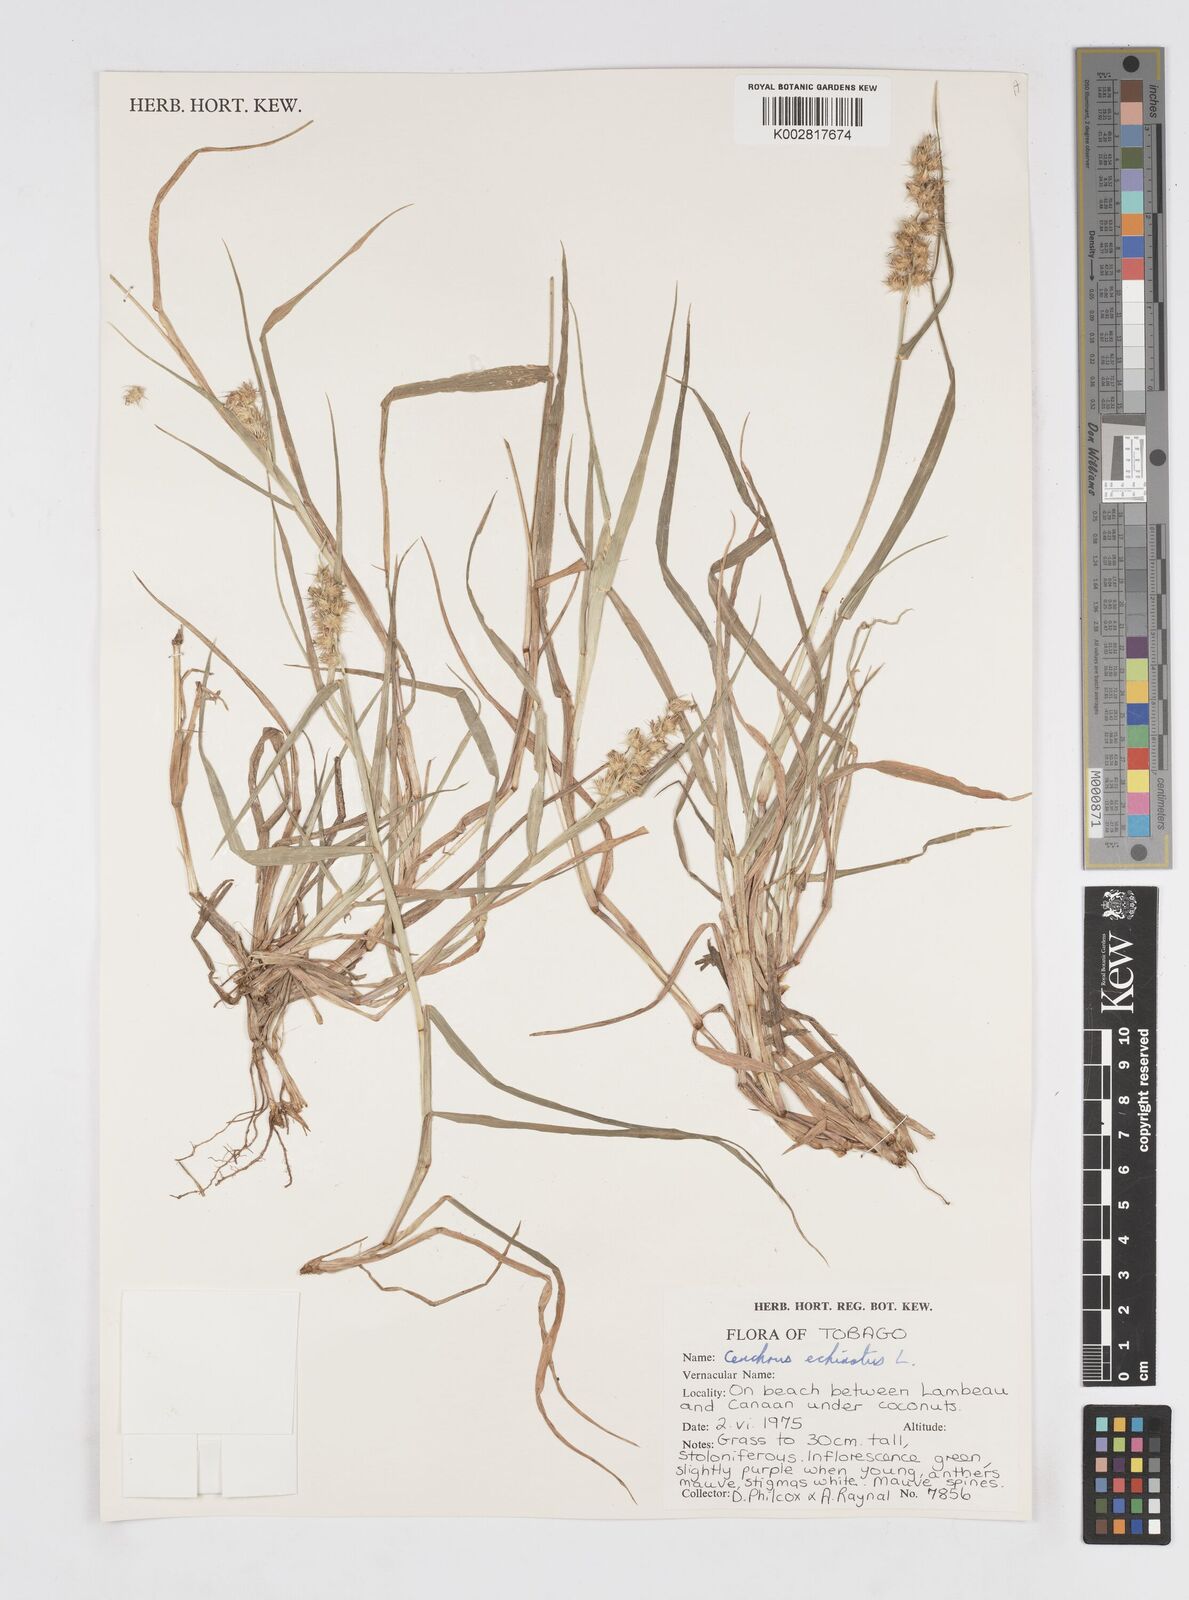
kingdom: Plantae
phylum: Tracheophyta
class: Liliopsida
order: Poales
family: Poaceae
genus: Cenchrus
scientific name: Cenchrus
